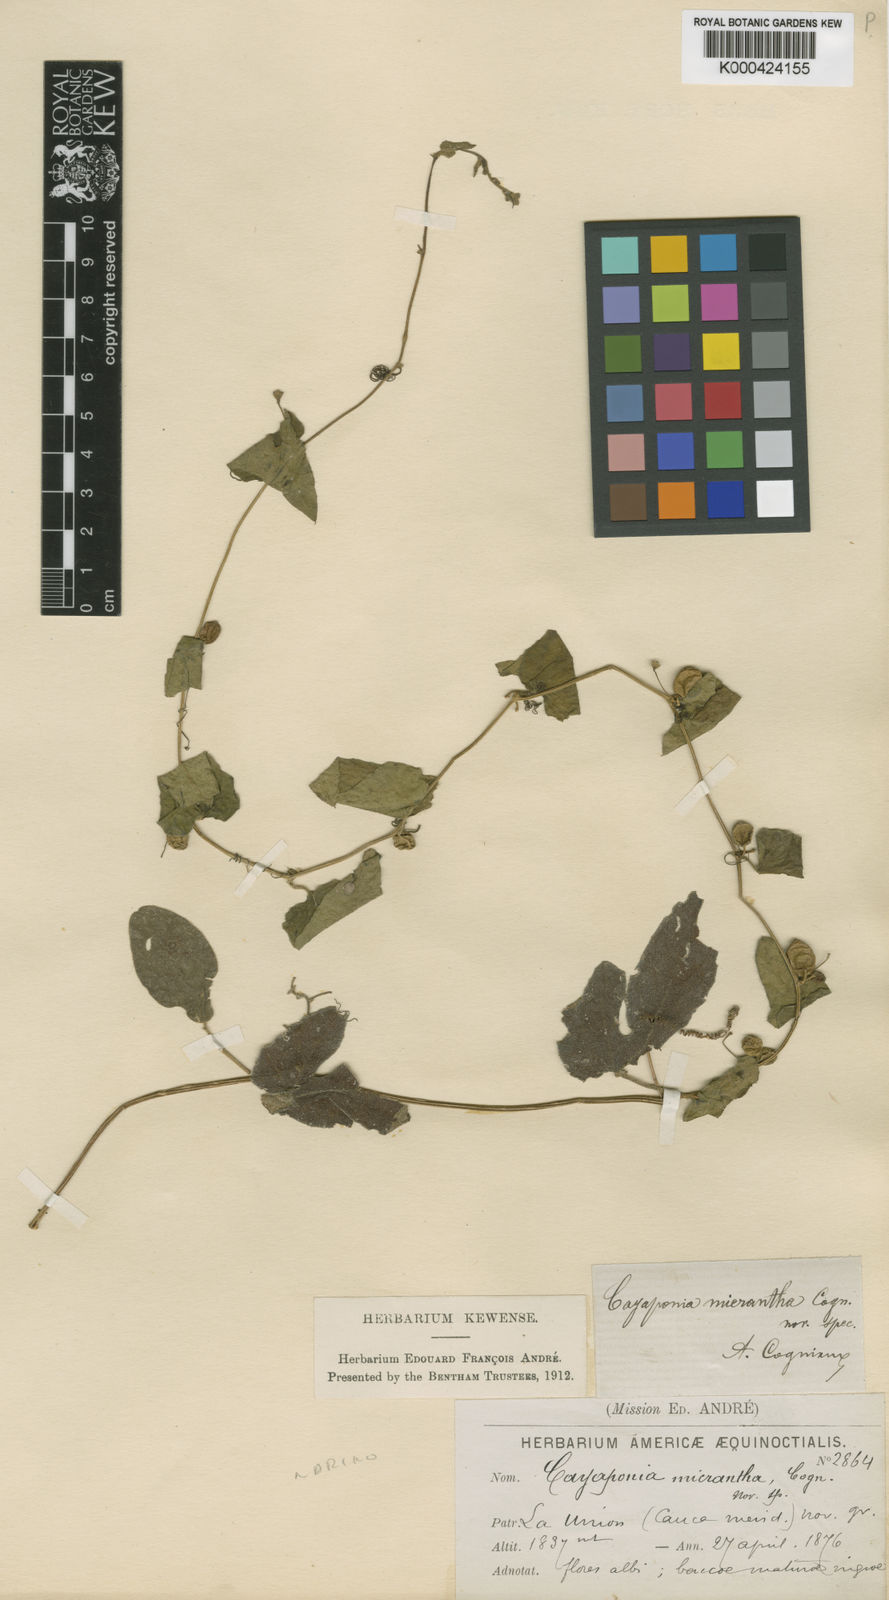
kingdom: Plantae
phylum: Tracheophyta
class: Magnoliopsida
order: Cucurbitales
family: Cucurbitaceae
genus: Cayaponia
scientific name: Cayaponia triangularis
